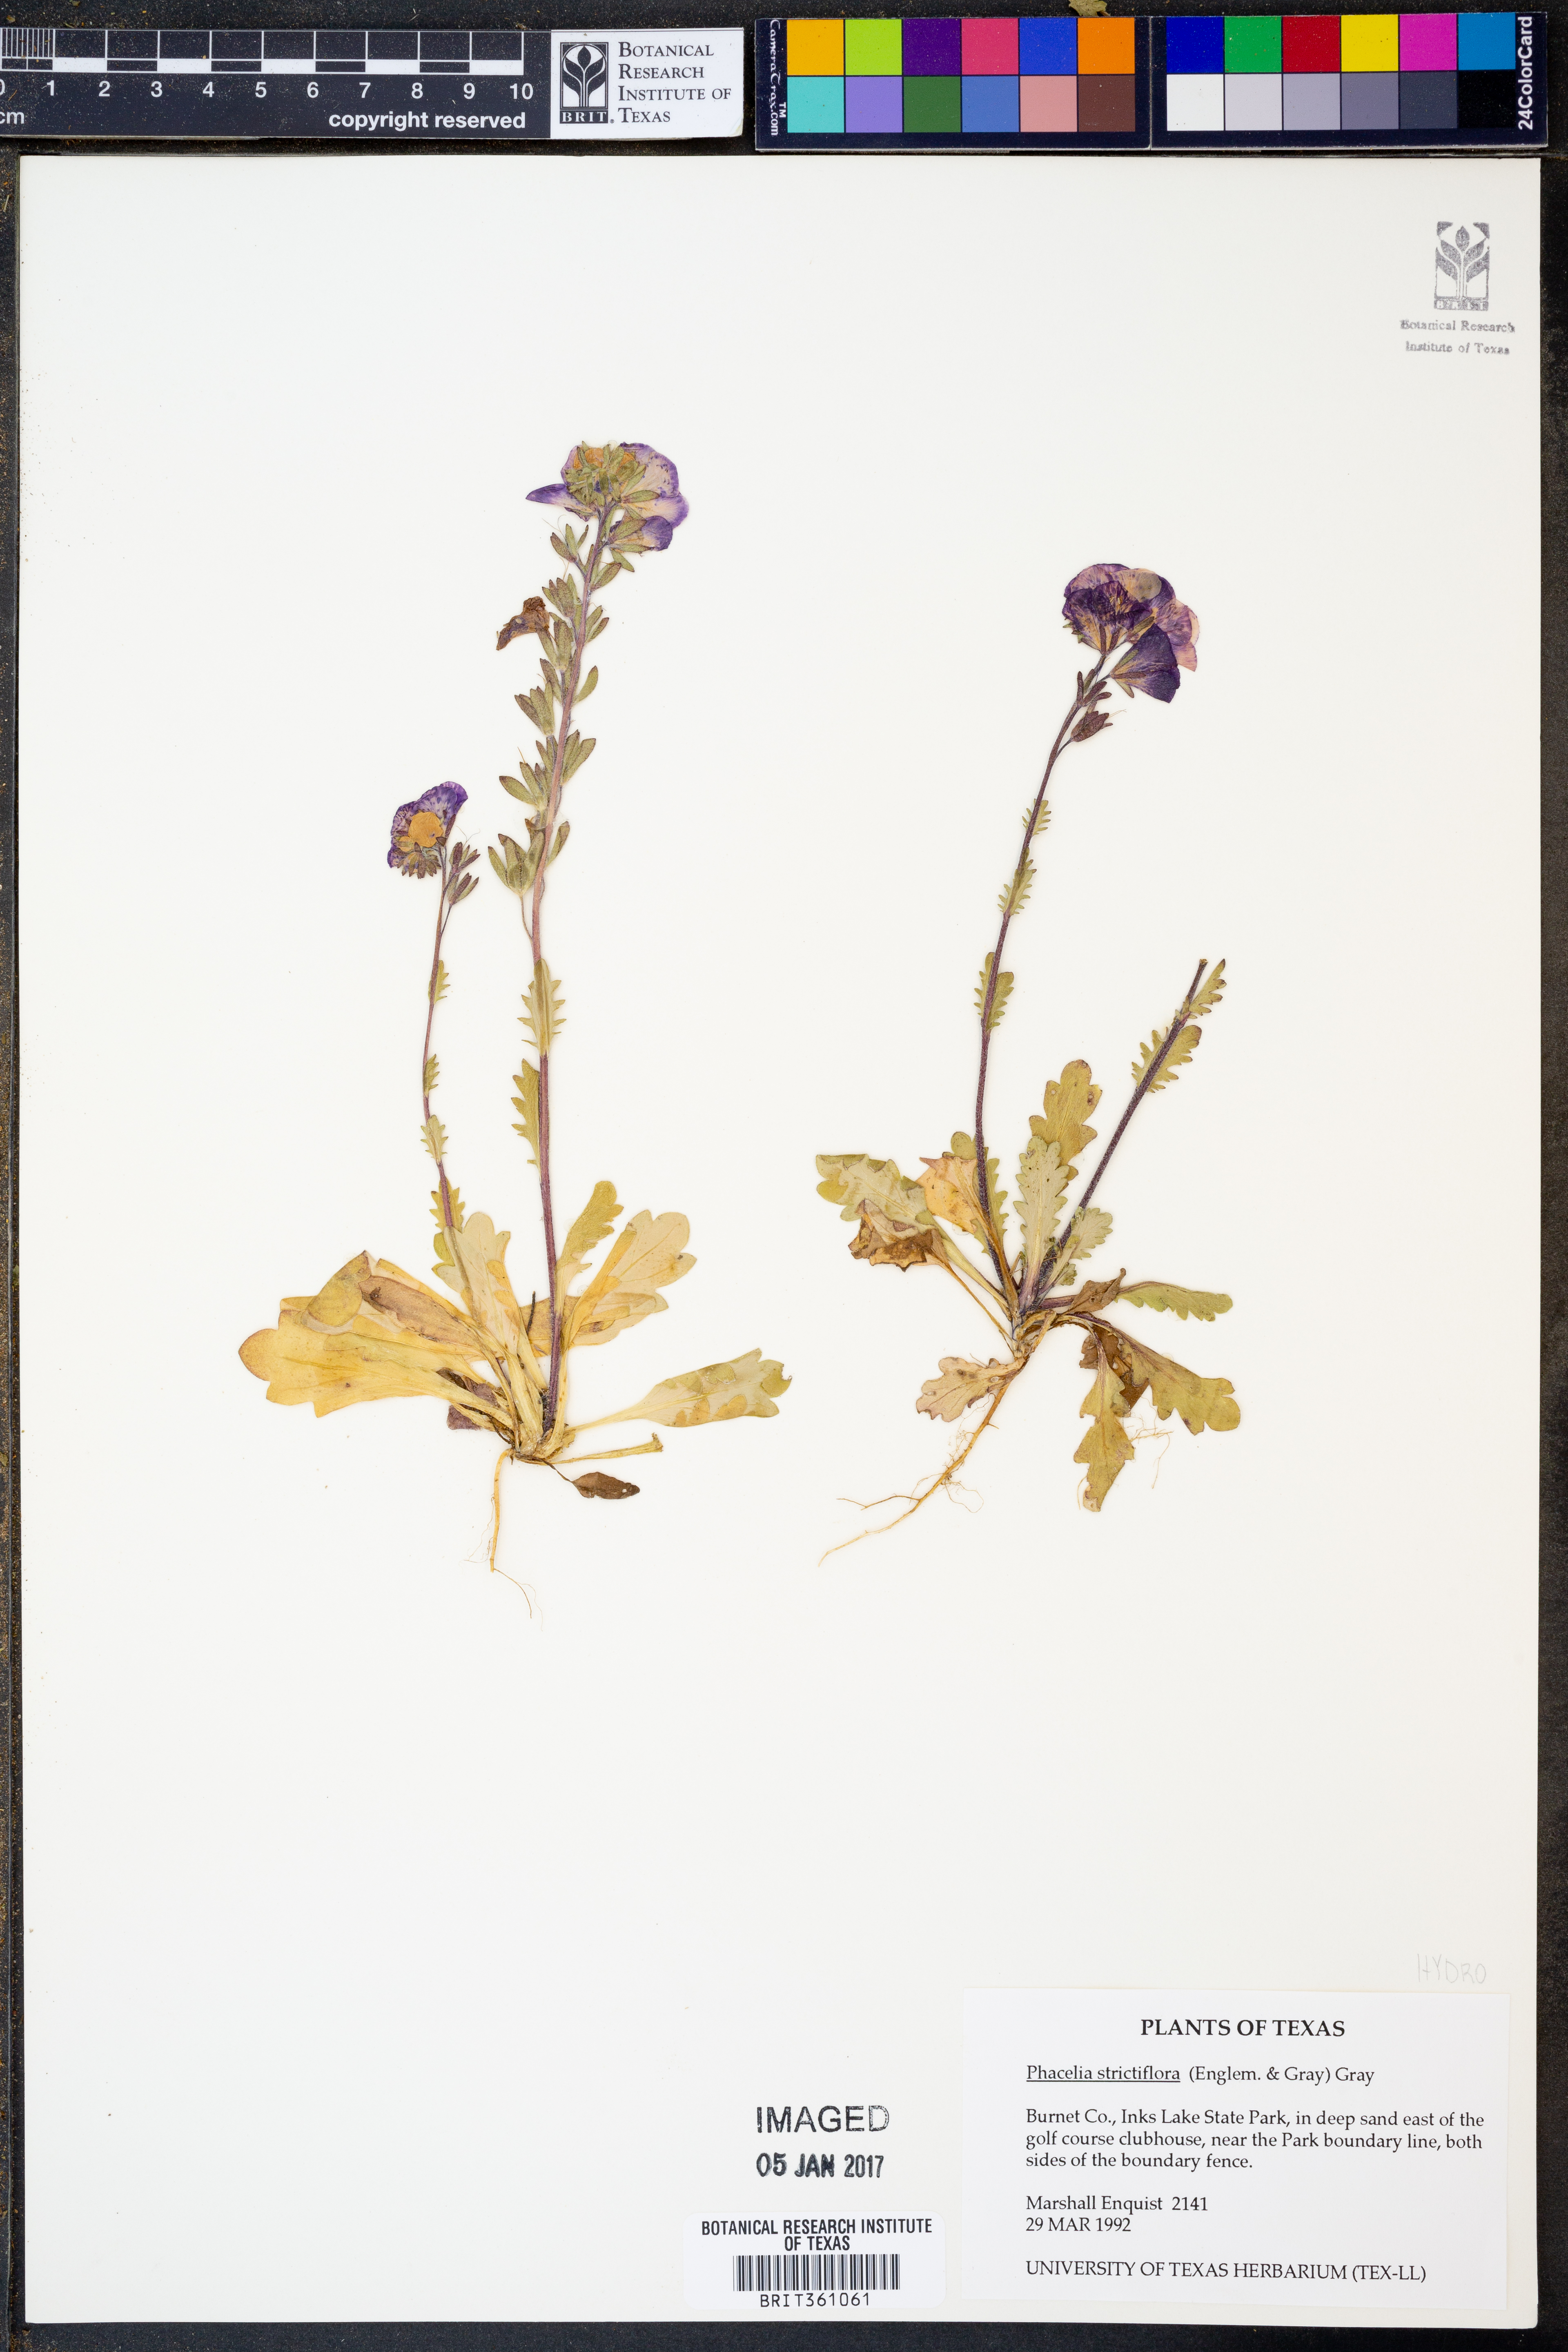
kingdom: Plantae
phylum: Tracheophyta
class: Magnoliopsida
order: Boraginales
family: Hydrophyllaceae
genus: Phacelia
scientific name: Phacelia strictiflora
